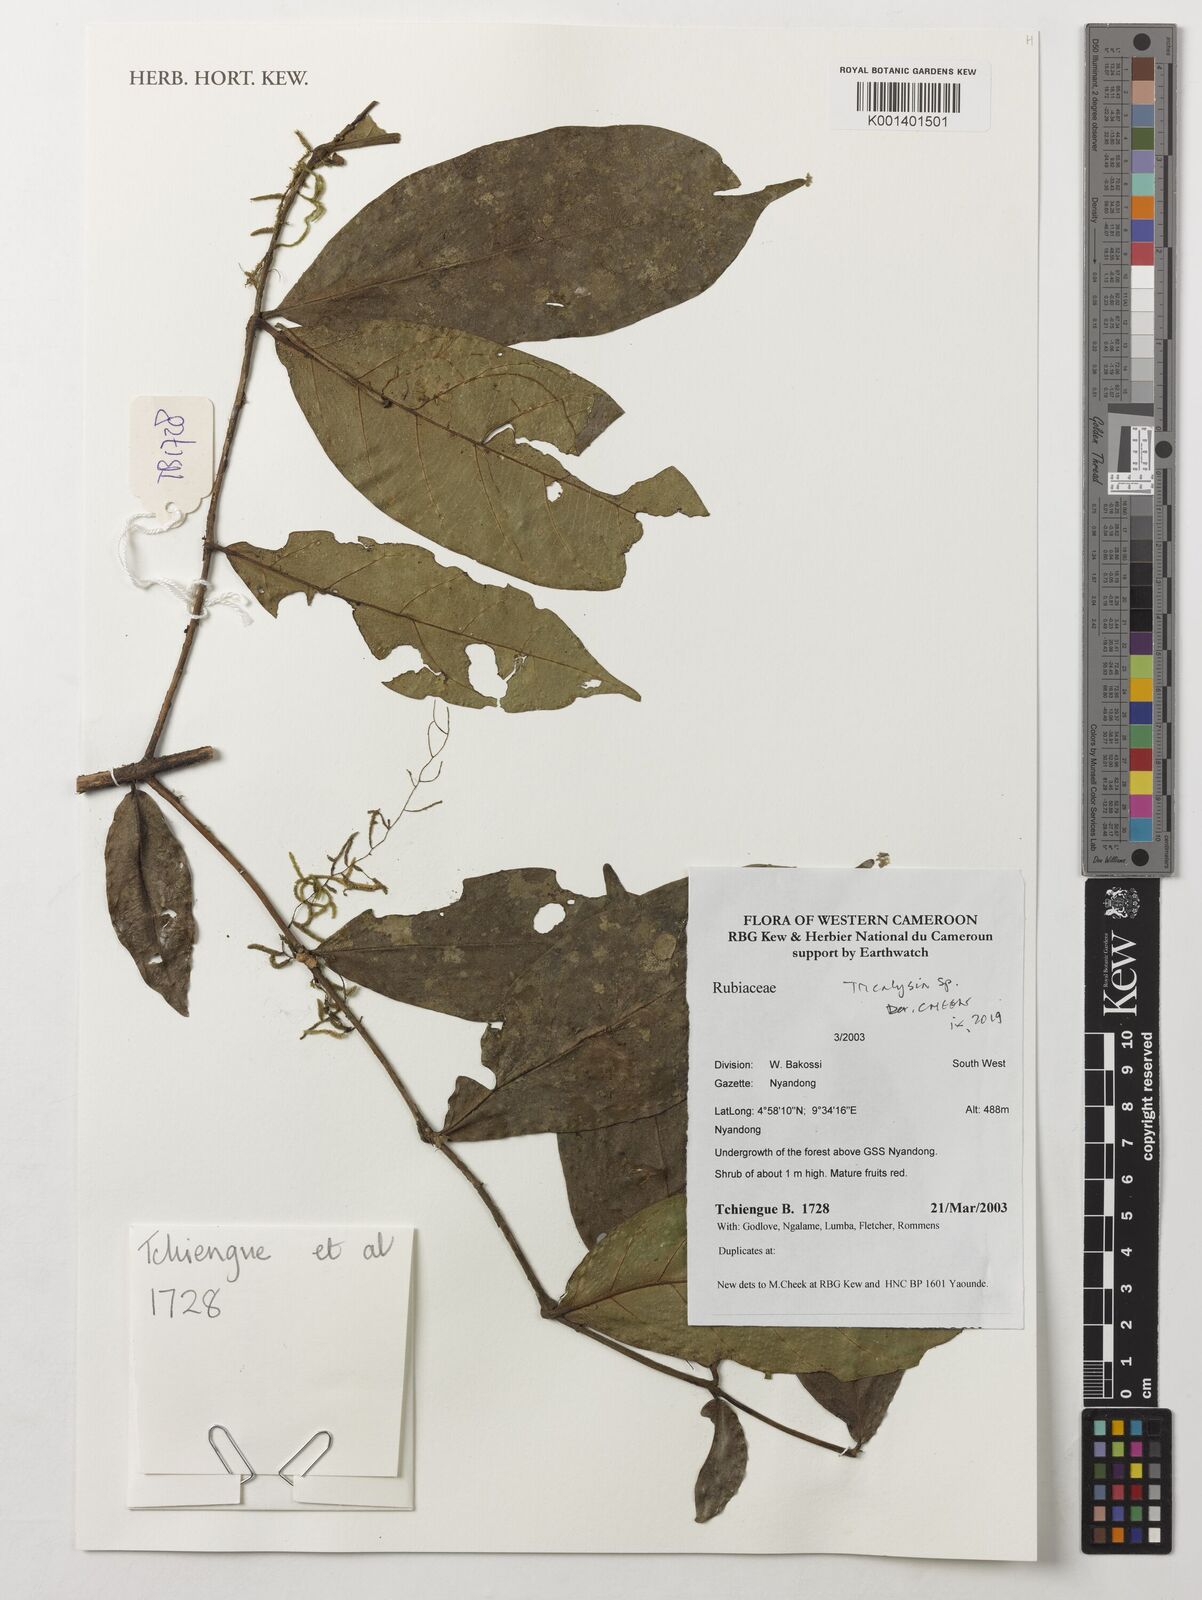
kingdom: Plantae
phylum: Tracheophyta
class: Magnoliopsida
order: Gentianales
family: Rubiaceae
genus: Tricalysia
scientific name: Tricalysia
